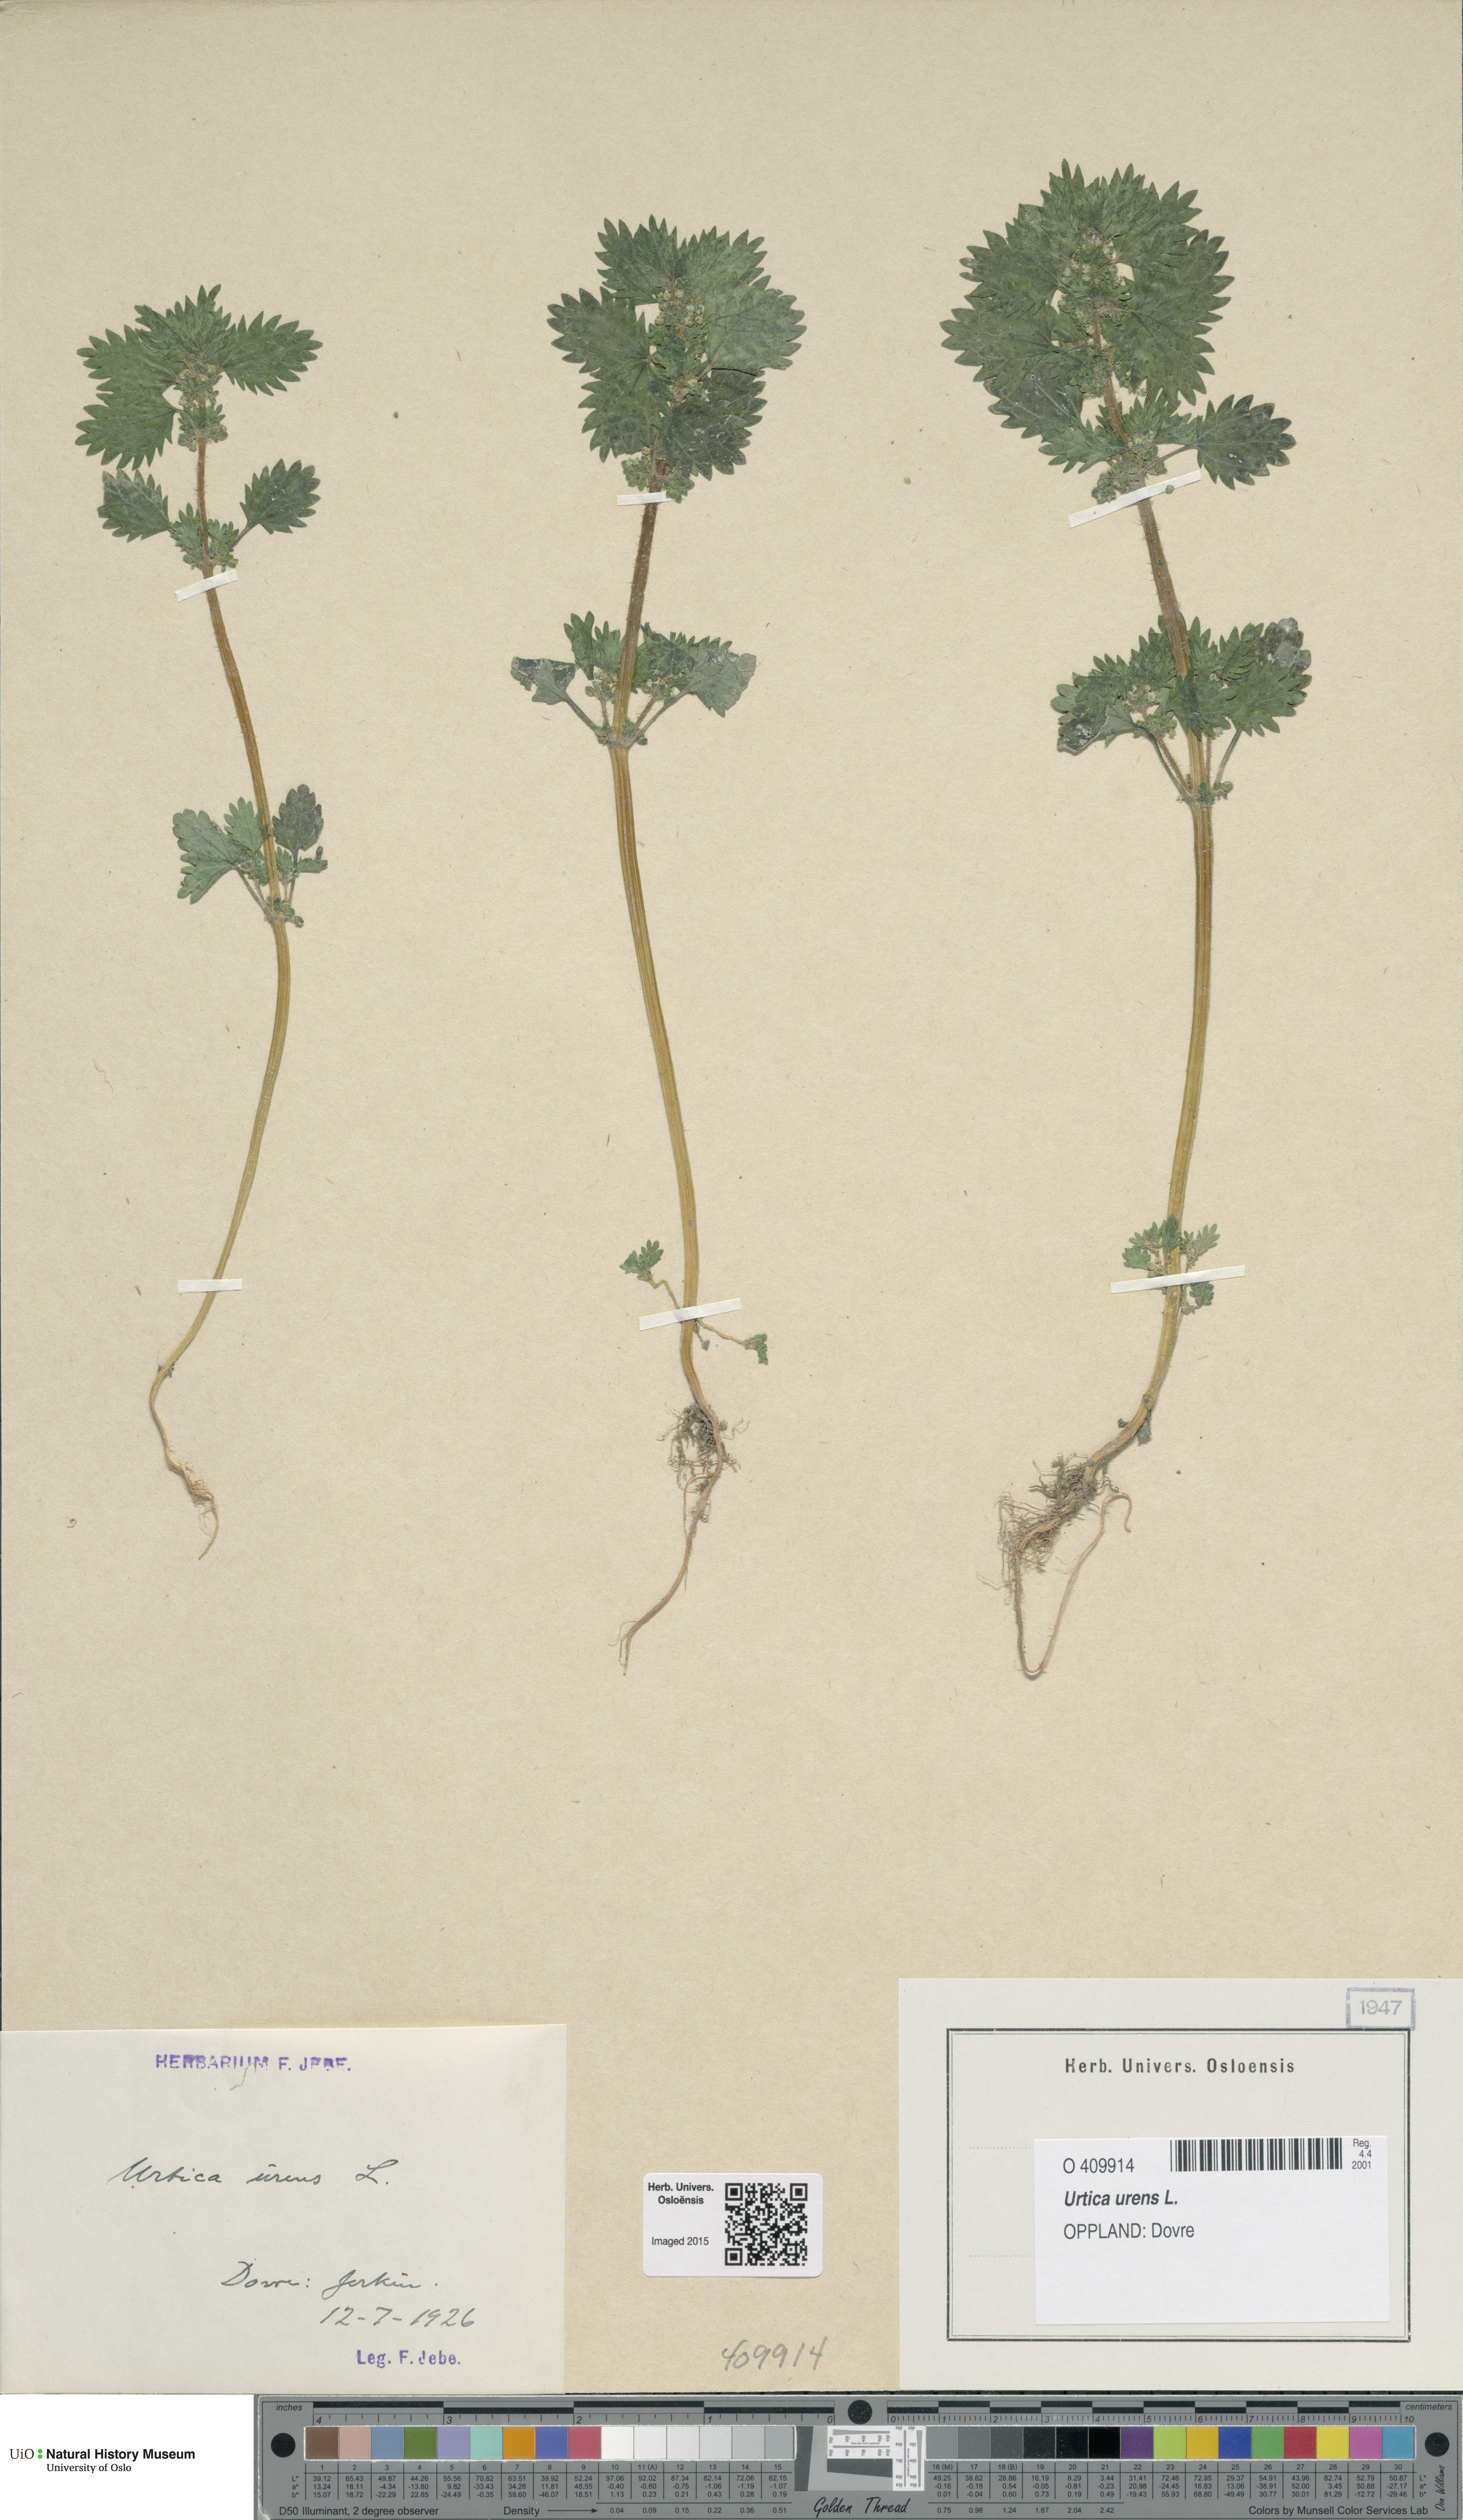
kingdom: Plantae
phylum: Tracheophyta
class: Magnoliopsida
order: Rosales
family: Urticaceae
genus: Urtica
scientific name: Urtica urens
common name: Dwarf nettle
